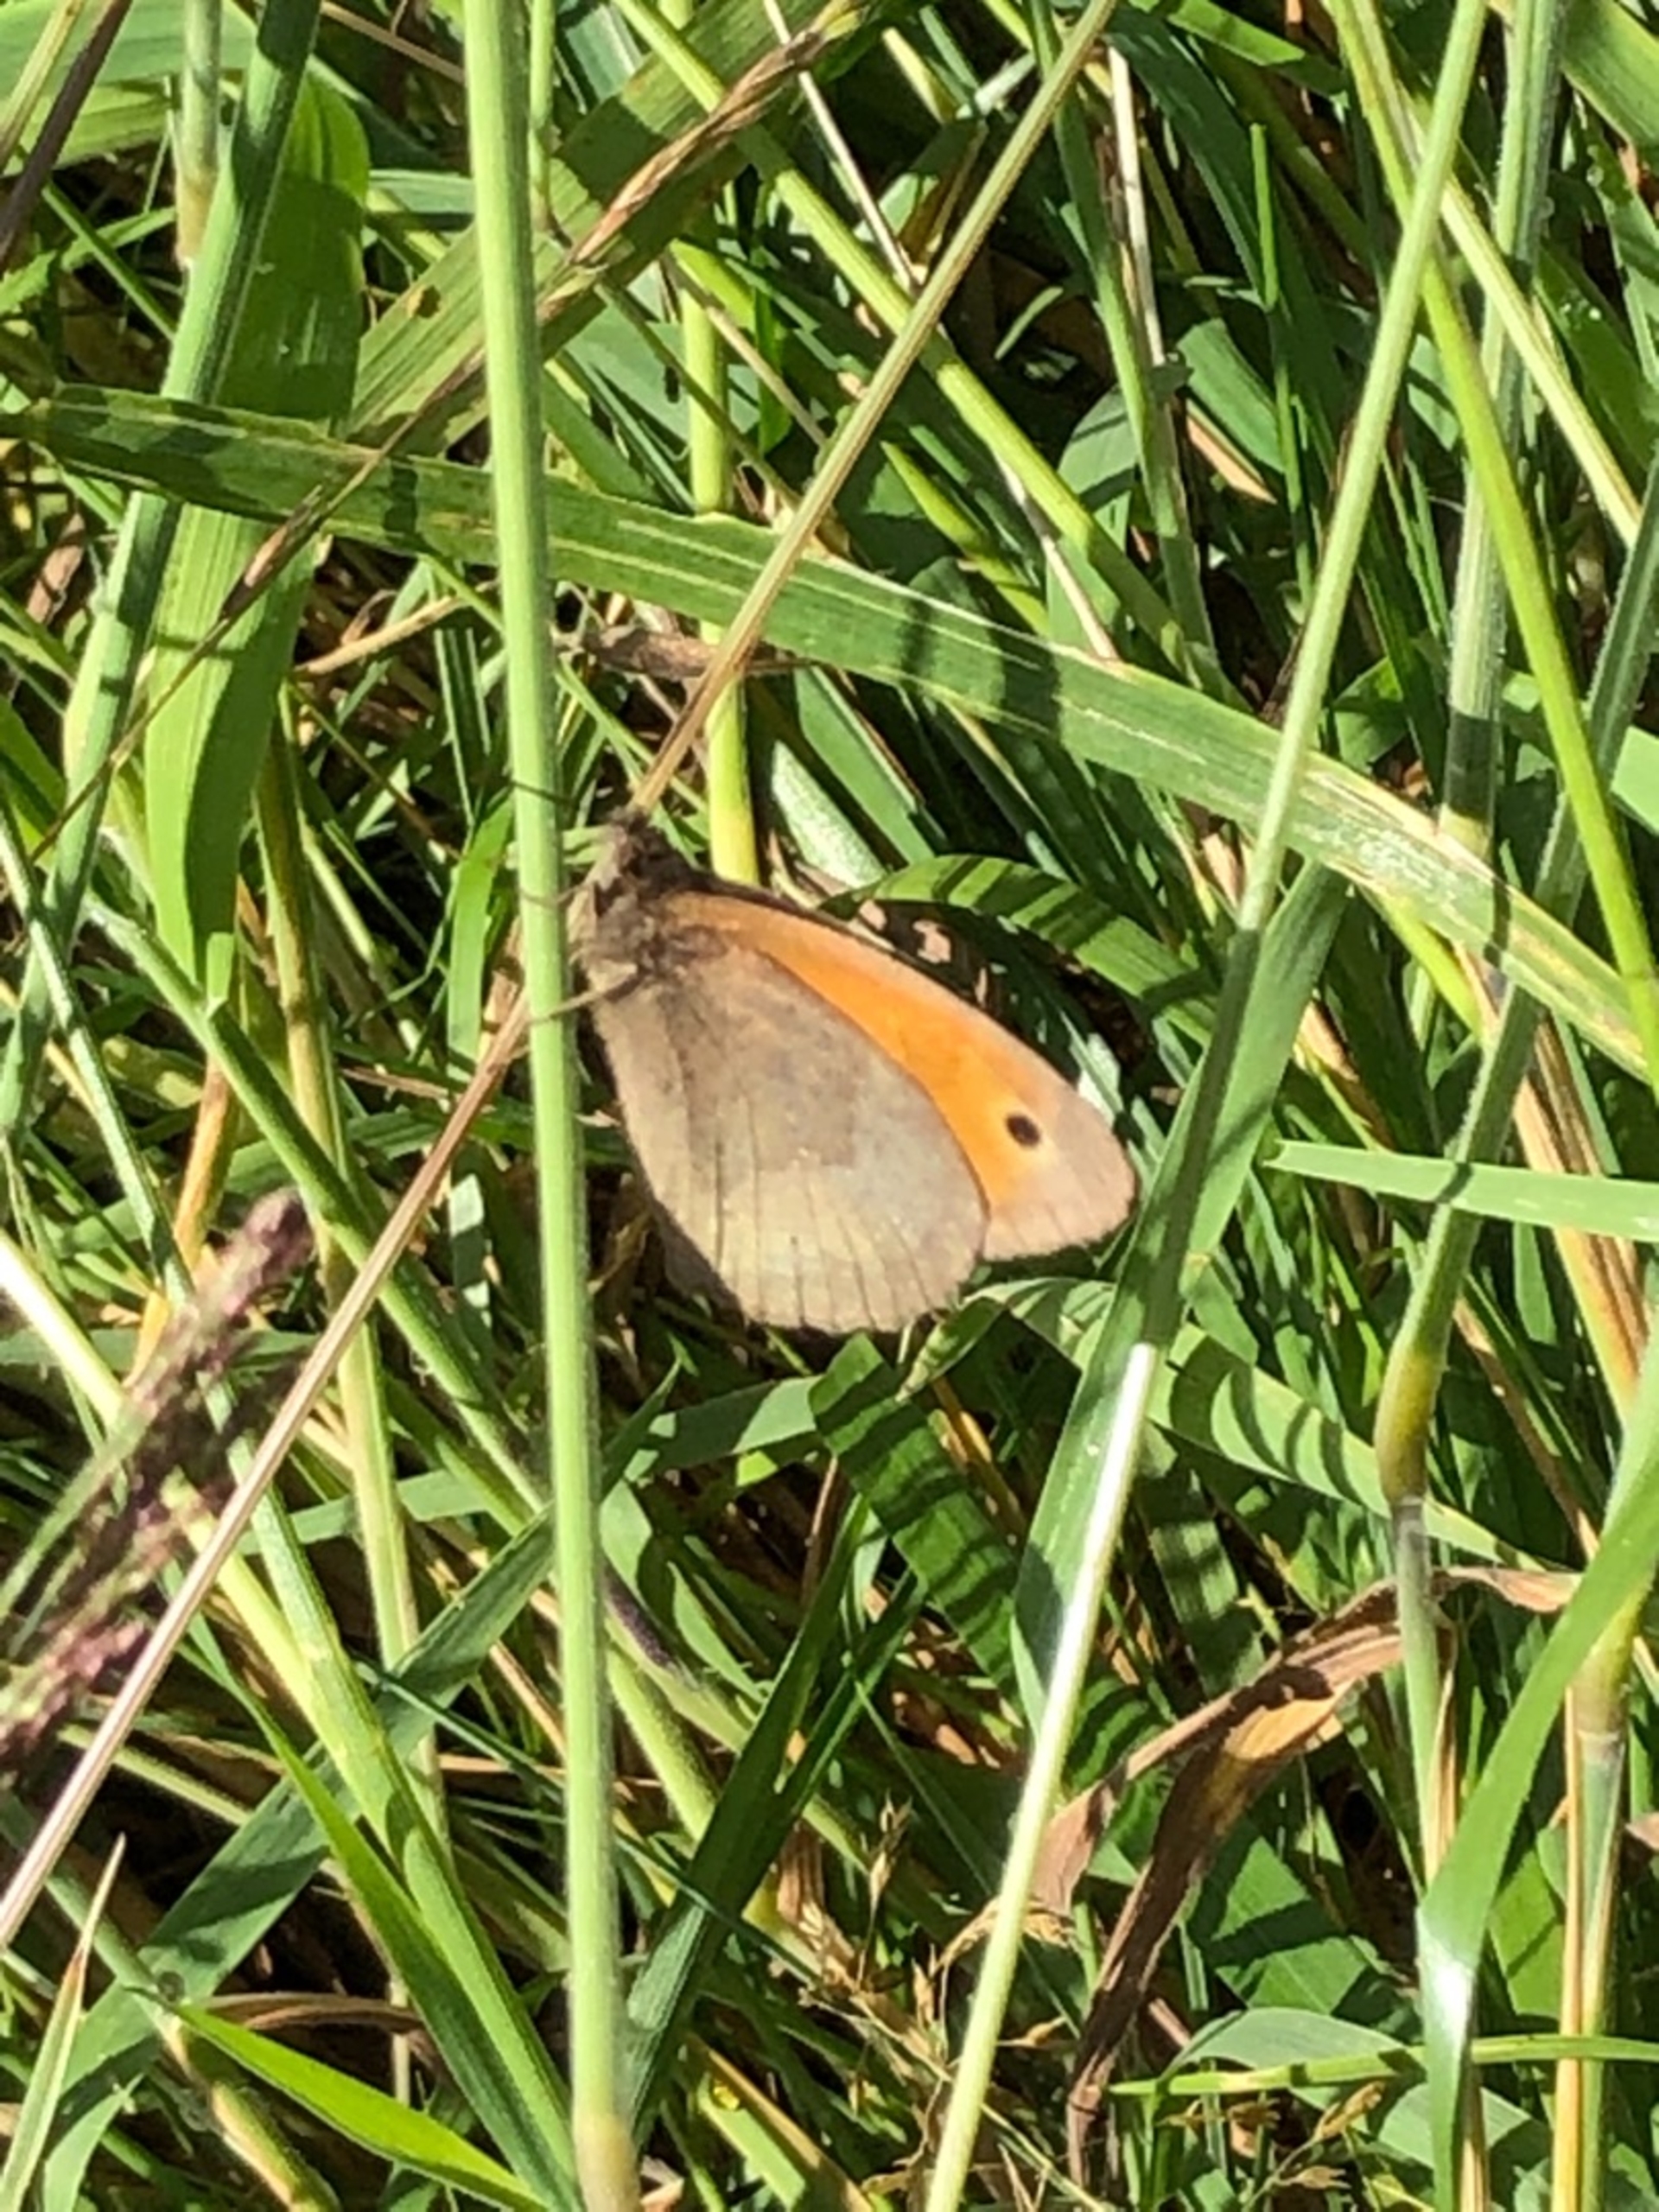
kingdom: Animalia
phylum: Arthropoda
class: Insecta
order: Lepidoptera
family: Nymphalidae
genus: Maniola
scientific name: Maniola jurtina
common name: Græsrandøje
